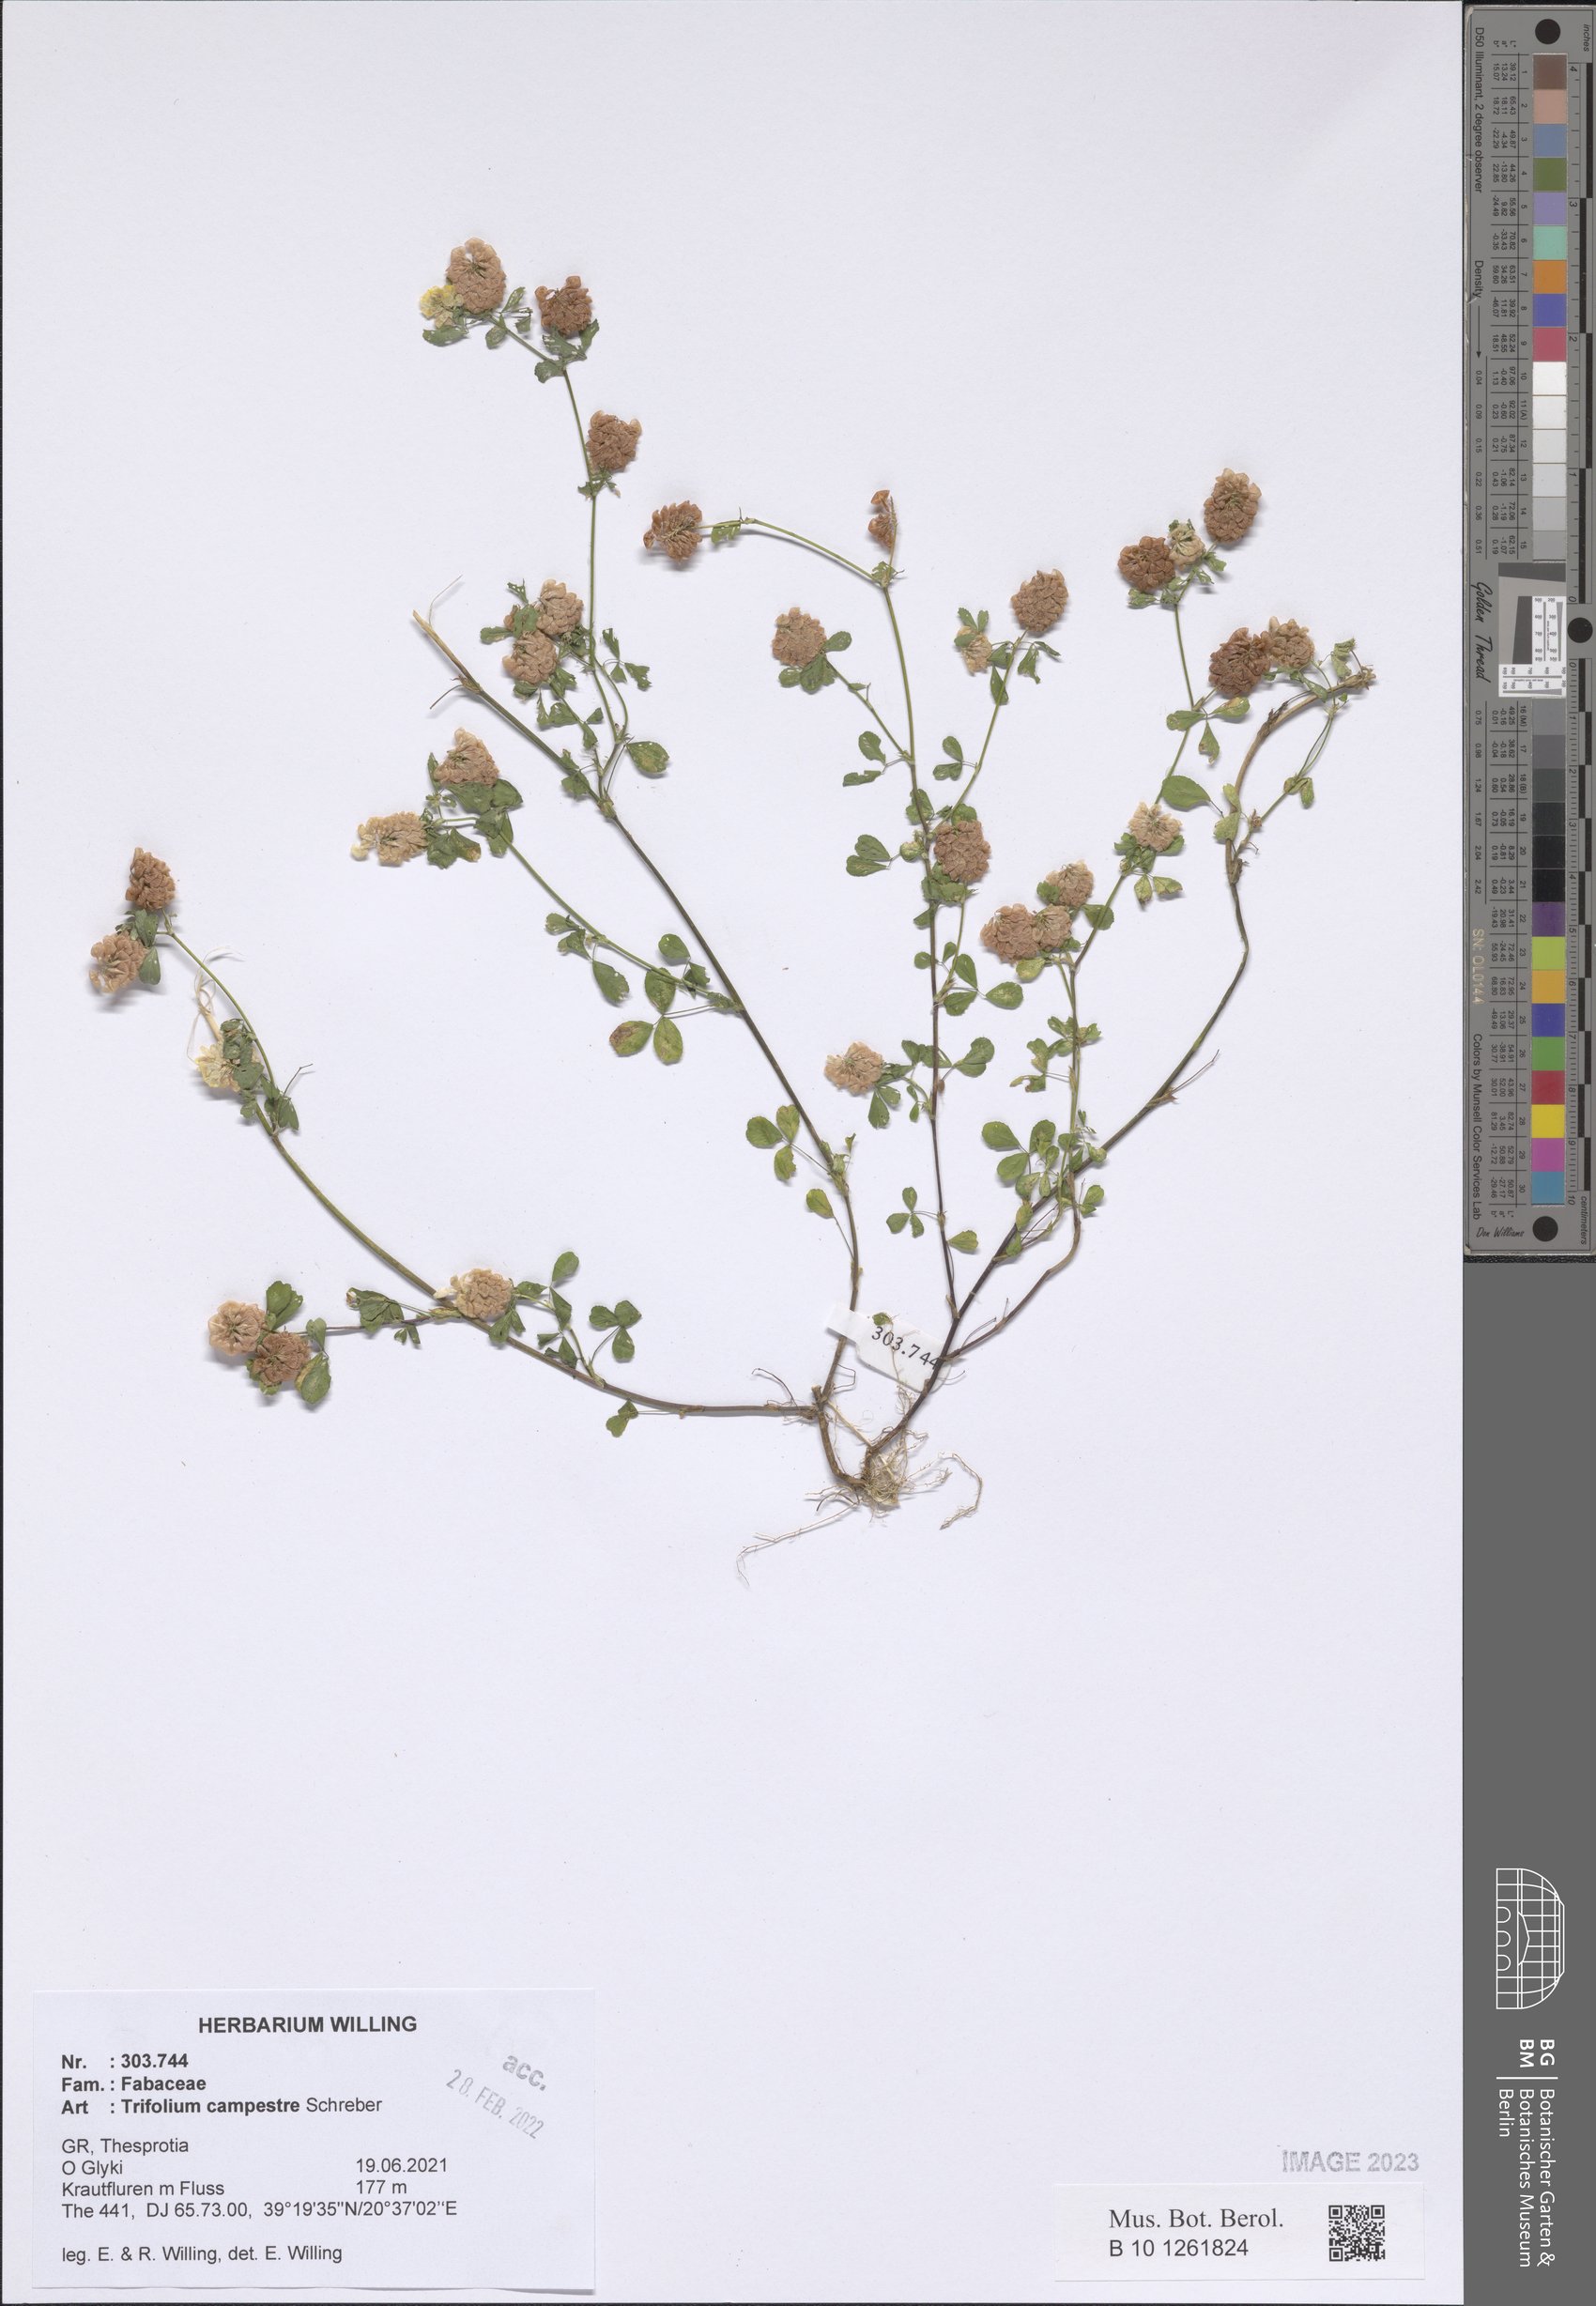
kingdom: Plantae
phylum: Tracheophyta
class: Magnoliopsida
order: Fabales
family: Fabaceae
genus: Trifolium
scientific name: Trifolium campestre
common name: Field clover
